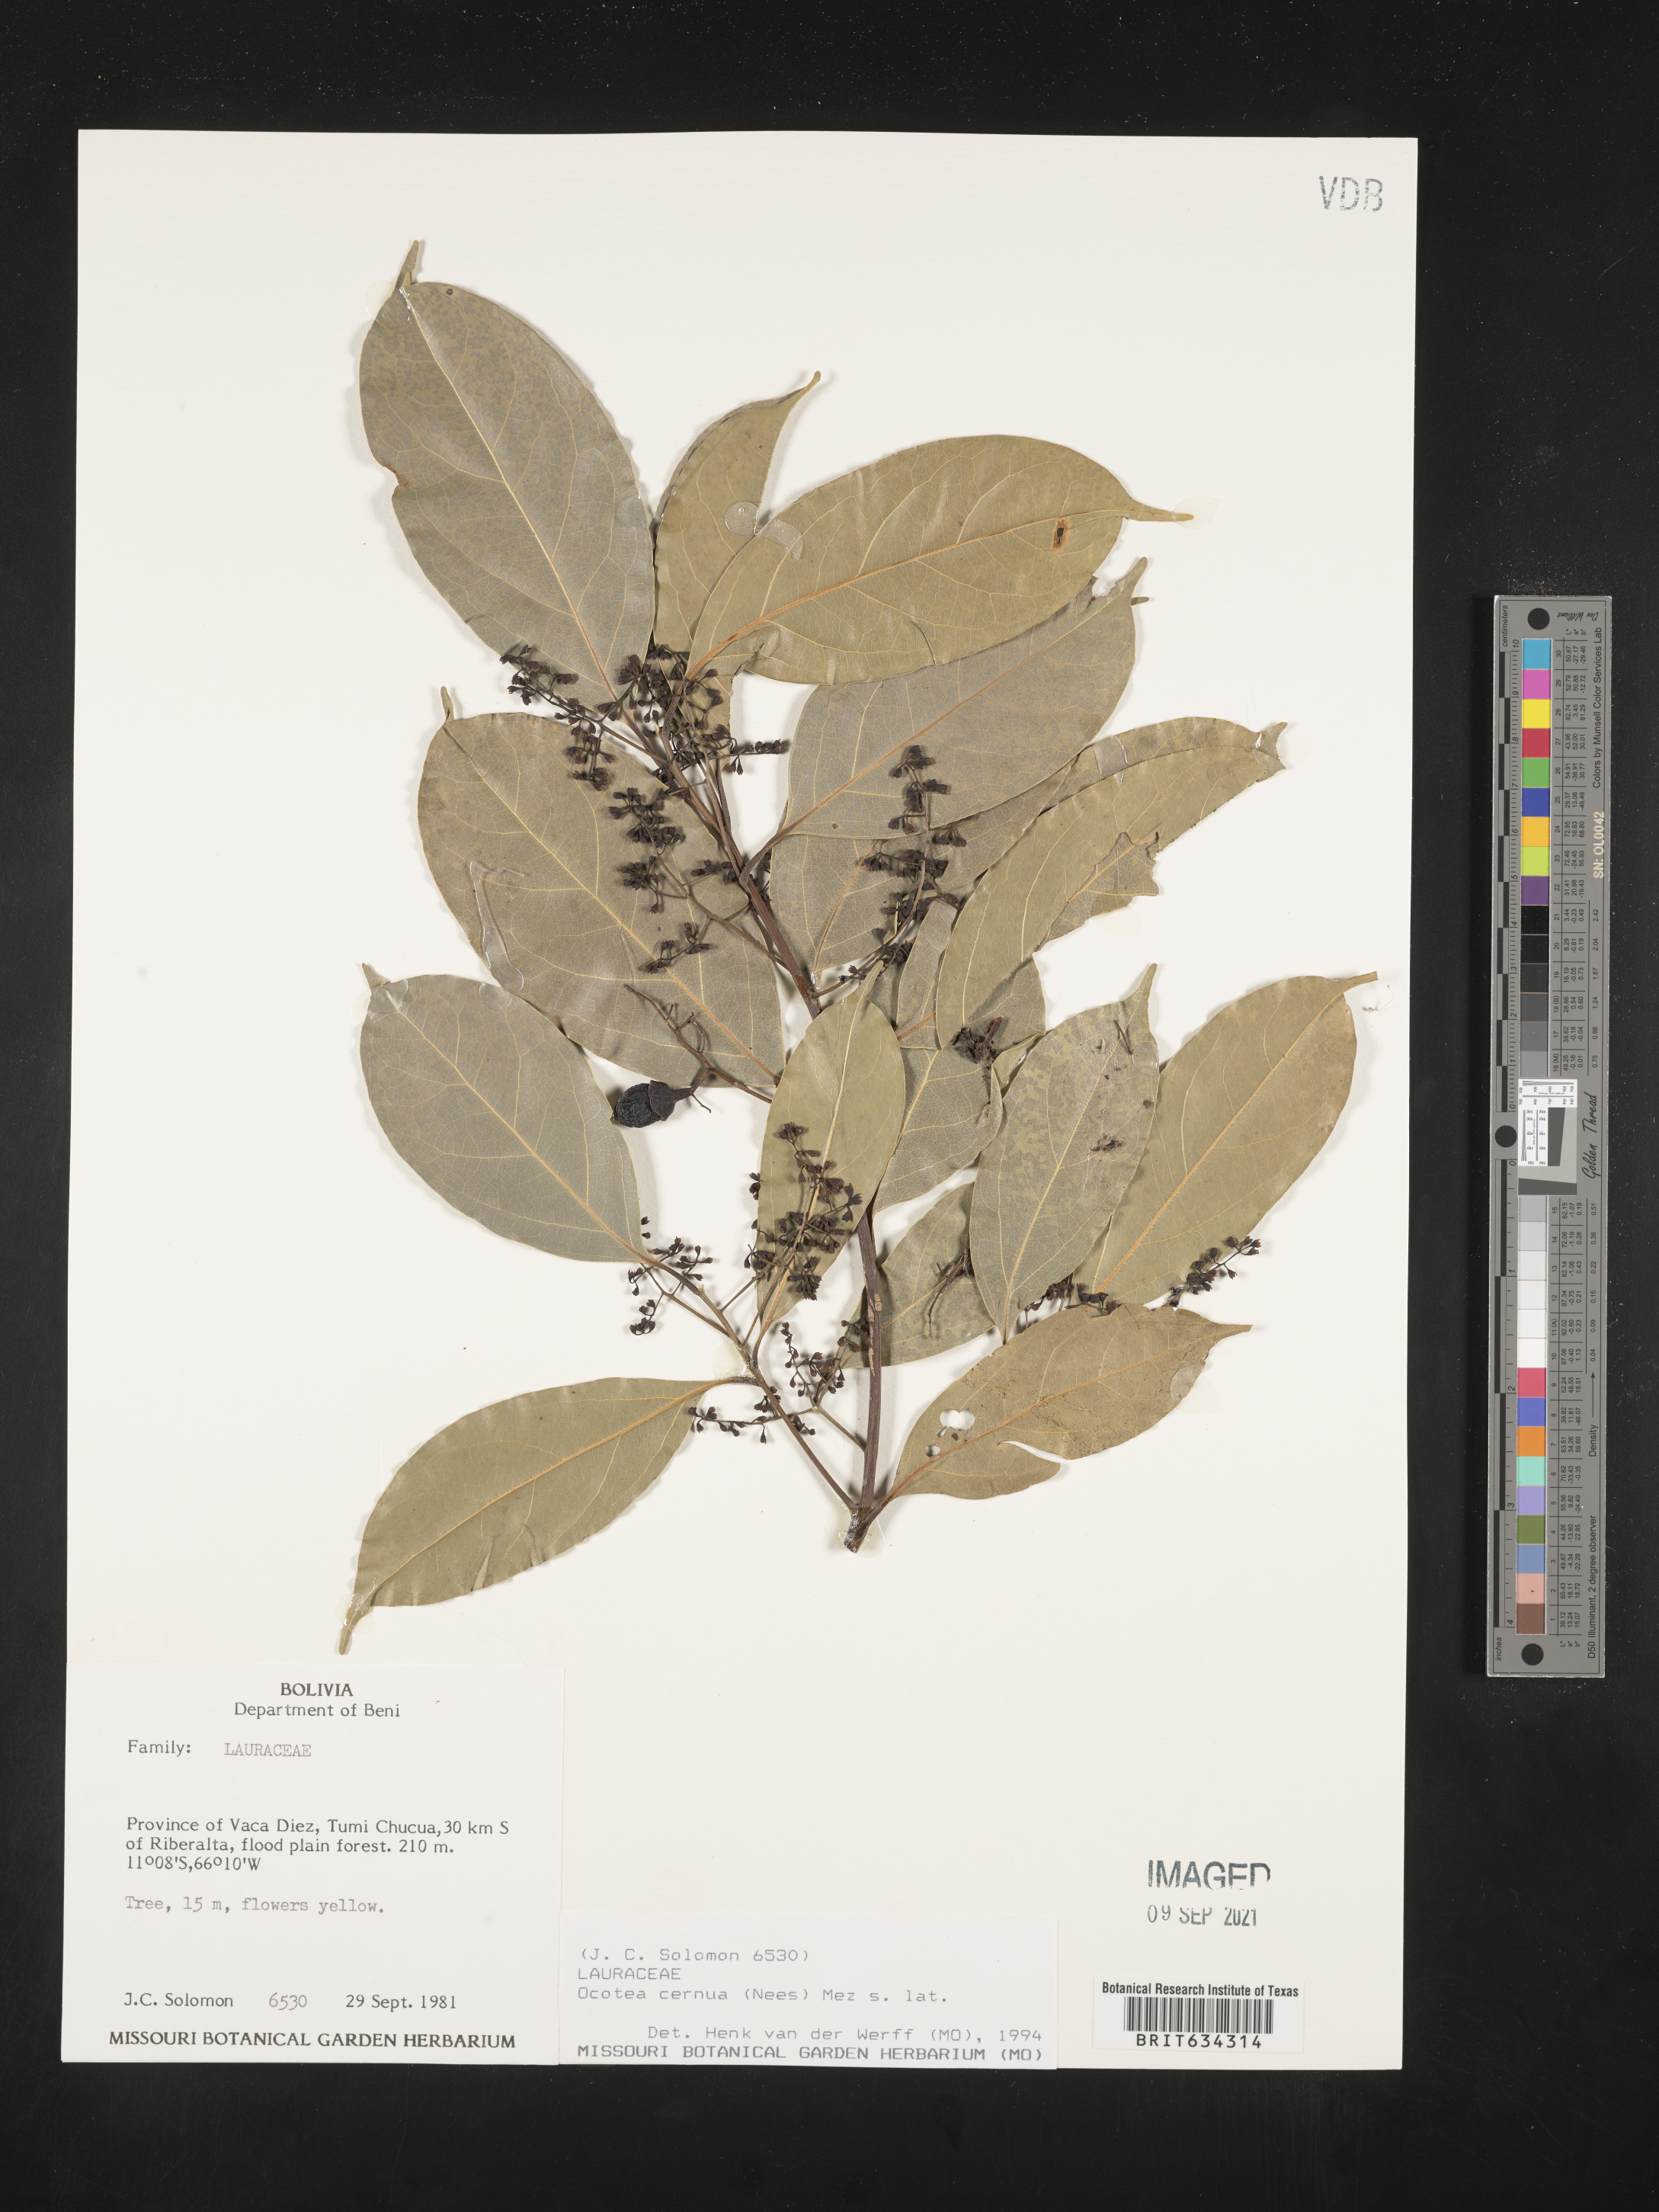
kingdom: Plantae
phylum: Tracheophyta
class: Magnoliopsida
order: Laurales
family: Lauraceae
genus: Ocotea
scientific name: Ocotea
